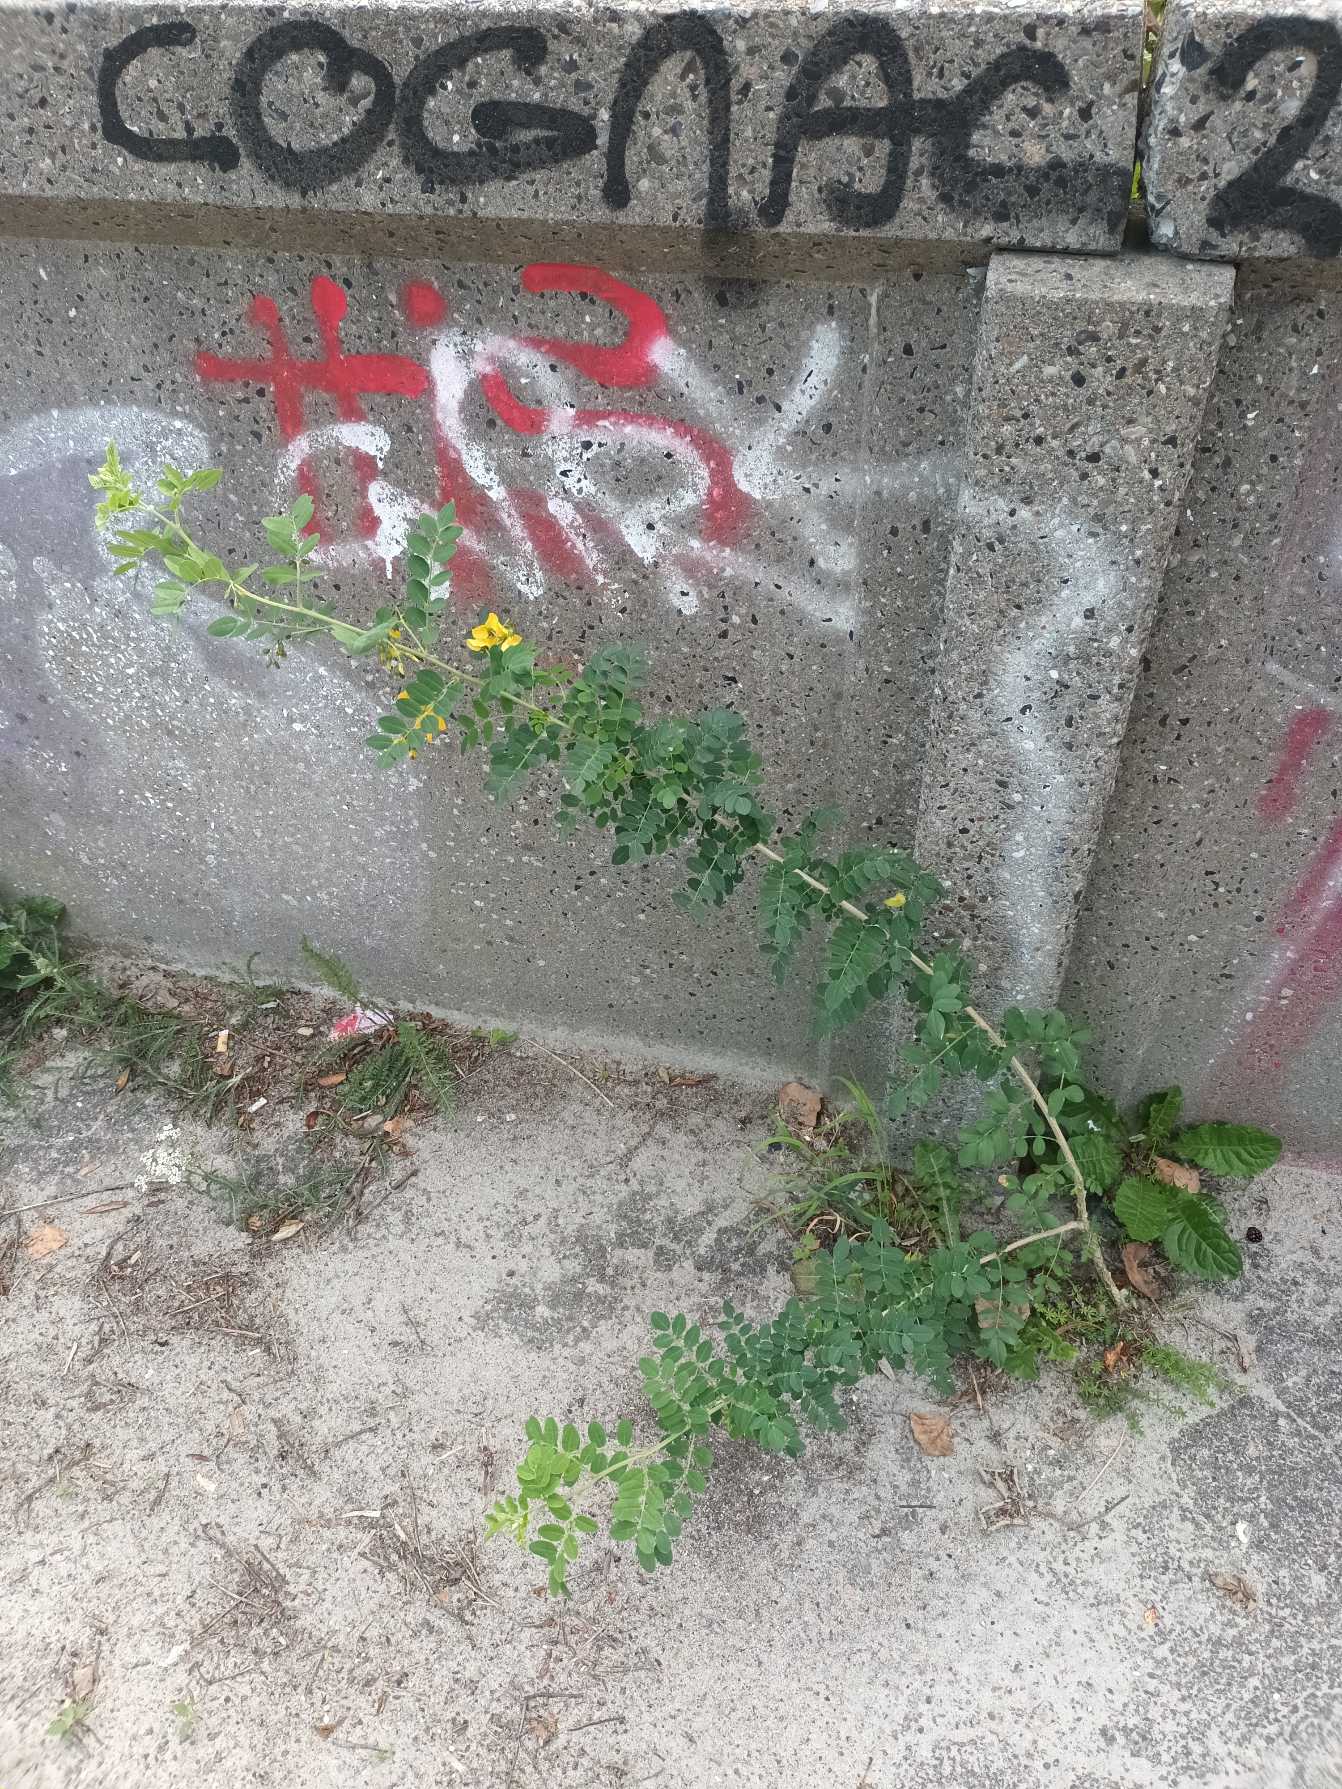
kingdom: Plantae
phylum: Tracheophyta
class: Magnoliopsida
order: Fabales
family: Fabaceae
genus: Colutea
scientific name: Colutea arborescens
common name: Almindelig blærebælg
